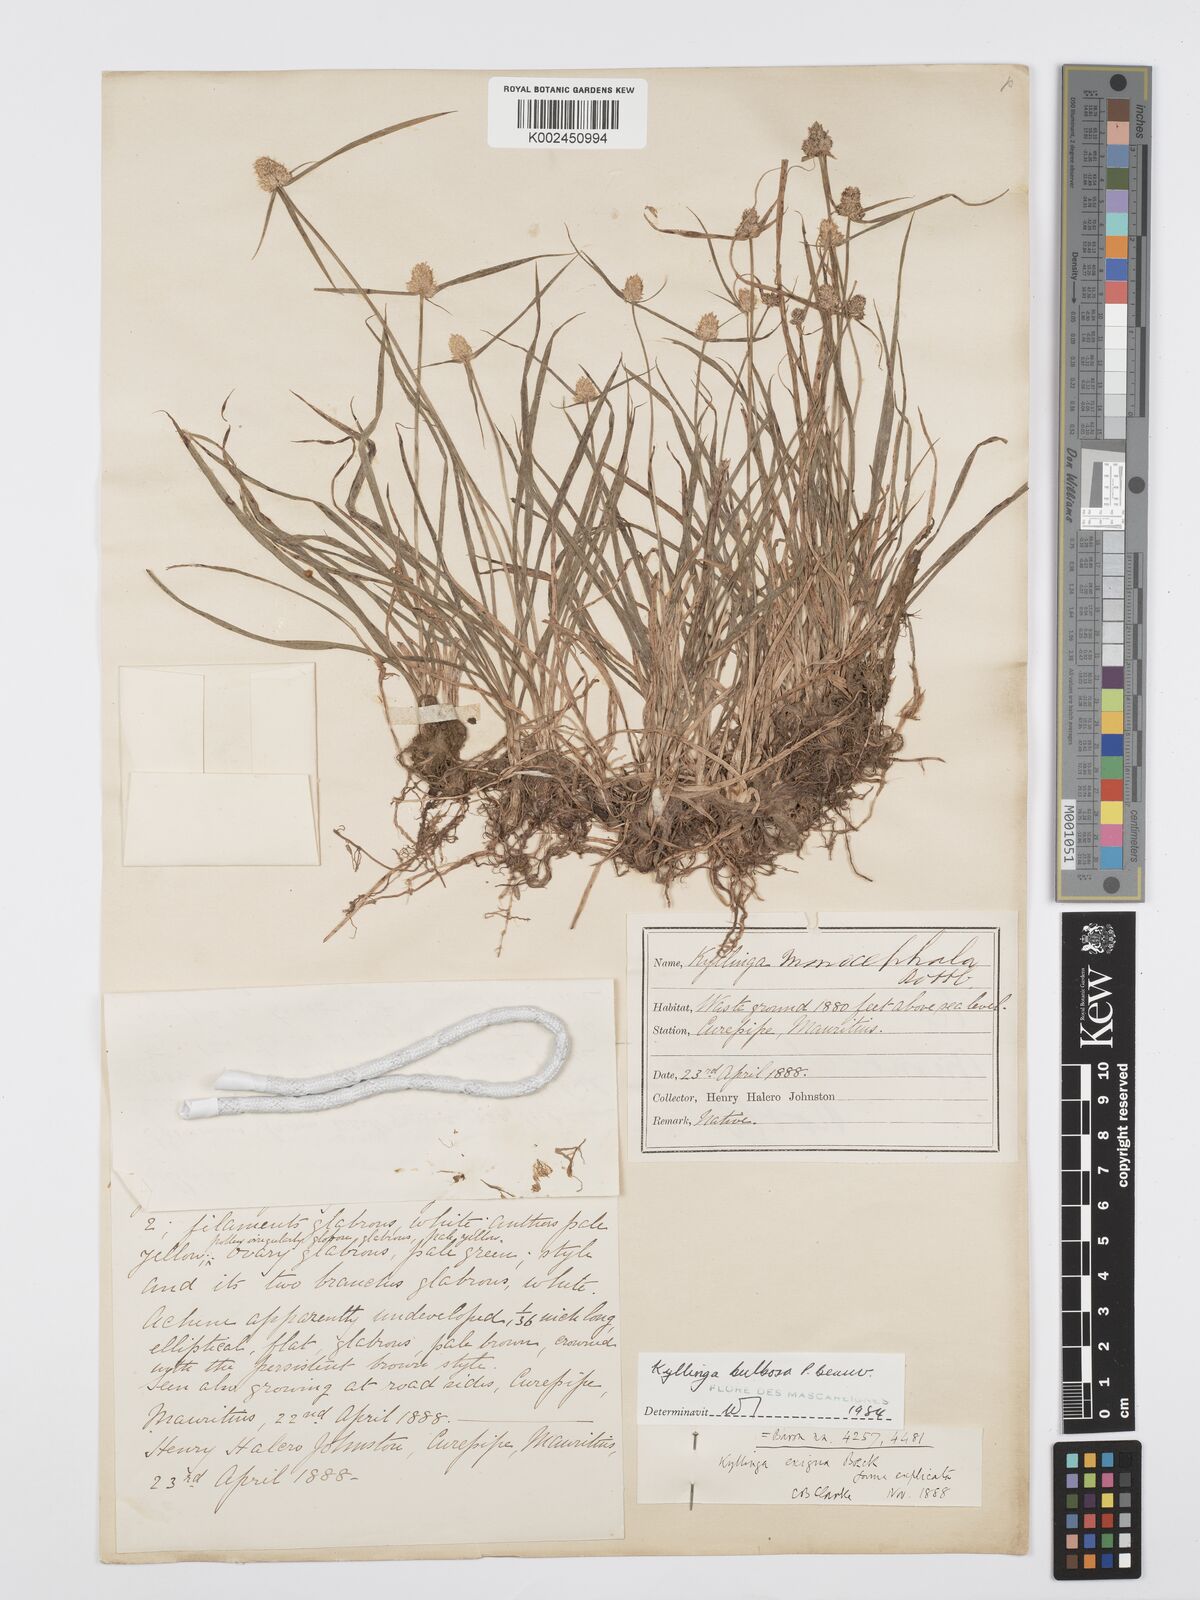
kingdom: Plantae
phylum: Tracheophyta
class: Liliopsida
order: Poales
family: Cyperaceae
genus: Cyperus
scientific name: Cyperus conglobatus
